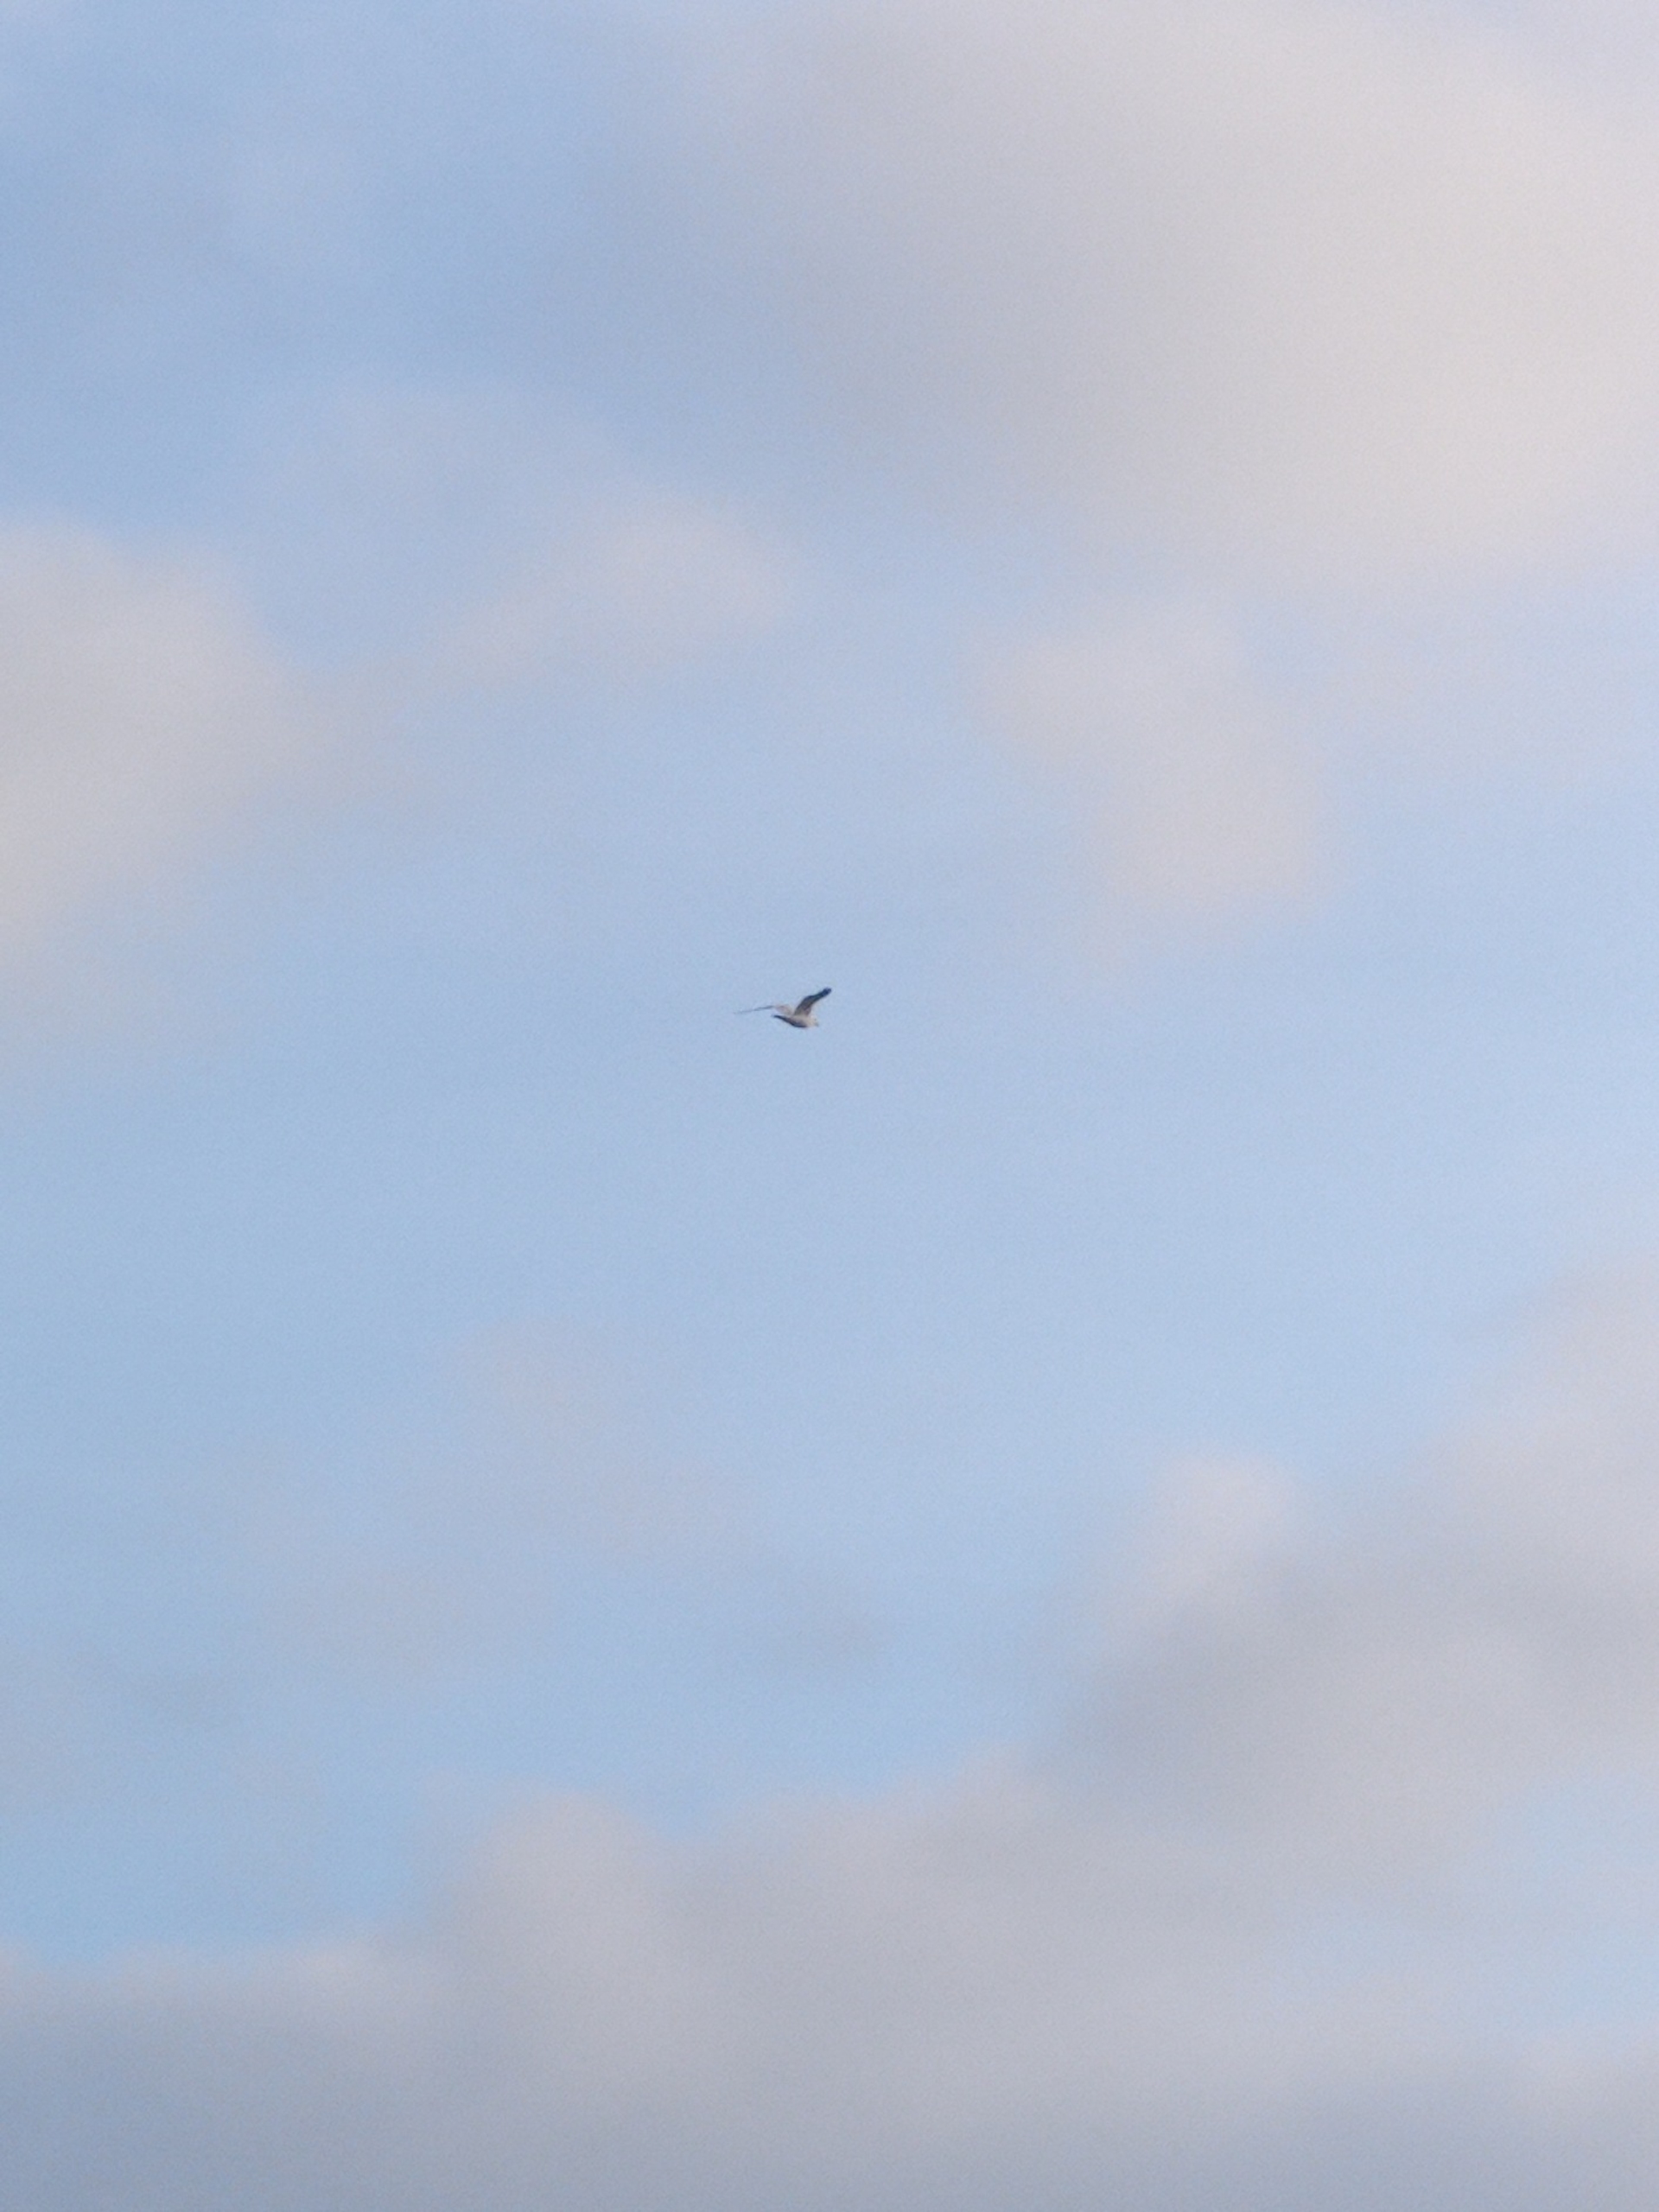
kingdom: Animalia
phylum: Chordata
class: Aves
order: Charadriiformes
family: Laridae
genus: Larus
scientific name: Larus argentatus
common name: Sølvmåge
